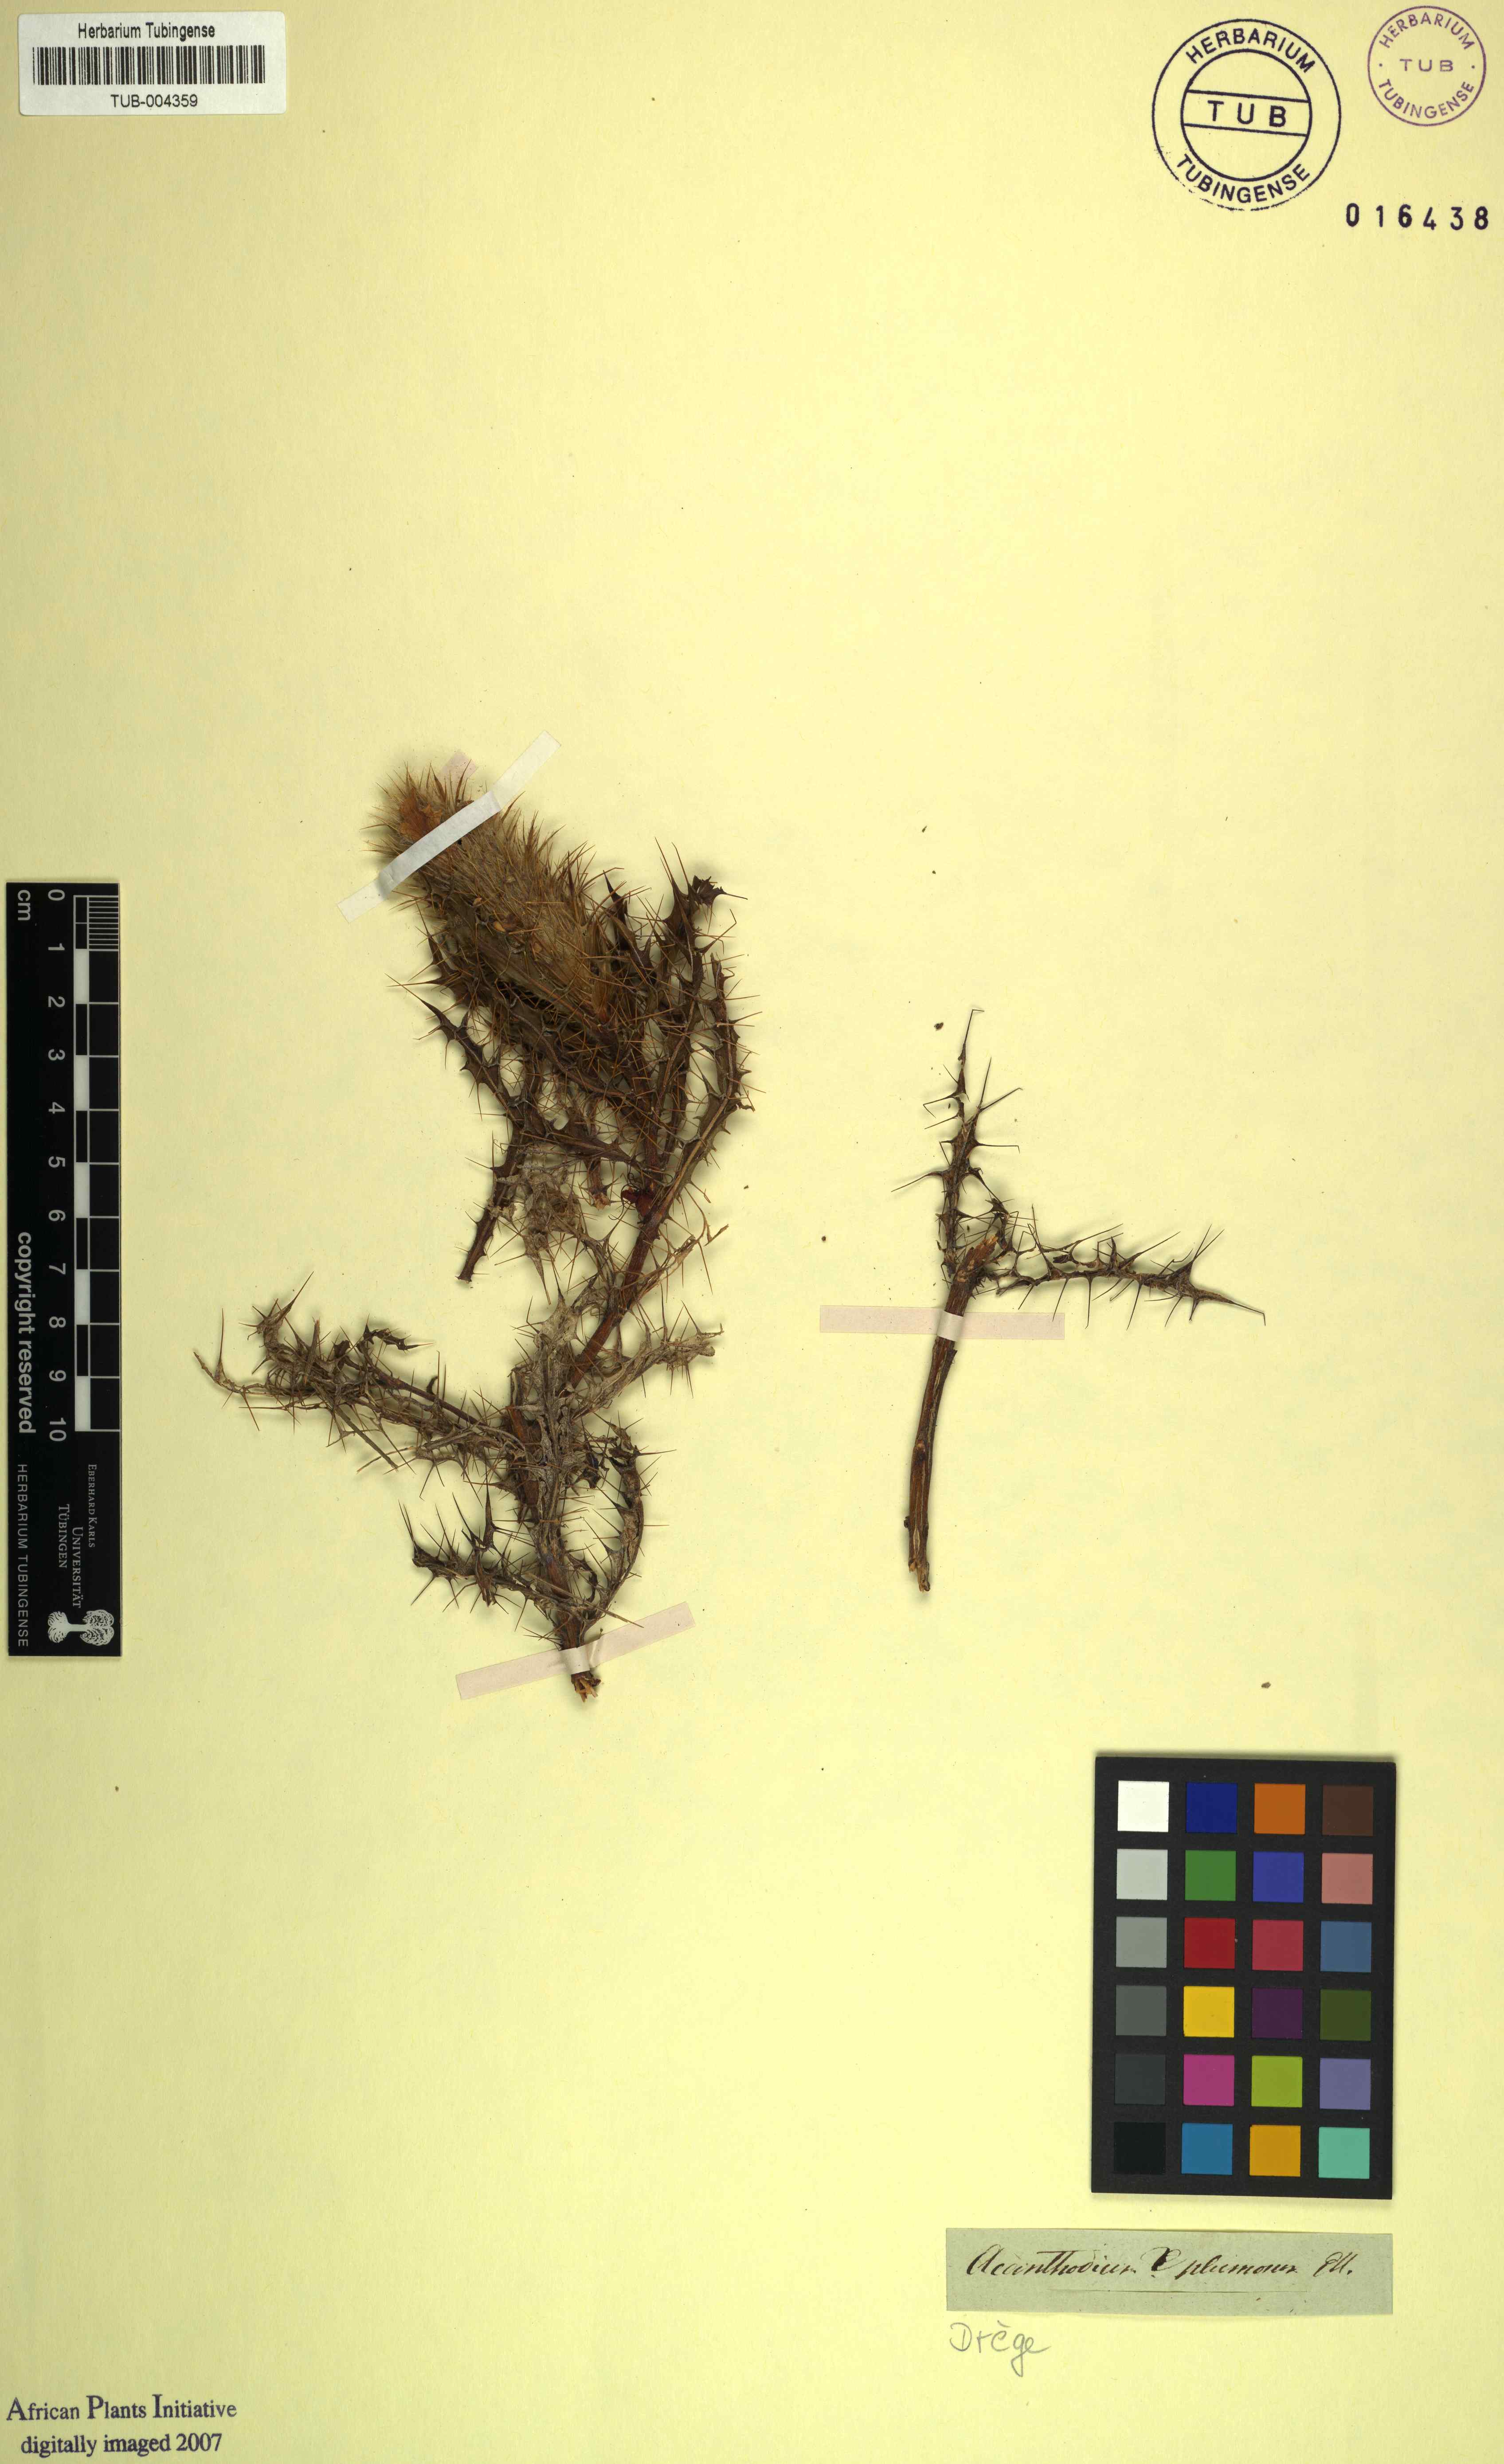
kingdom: Plantae
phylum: Tracheophyta
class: Magnoliopsida
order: Lamiales
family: Acanthaceae
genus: Acanthopsis
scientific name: Acanthopsis horrida
